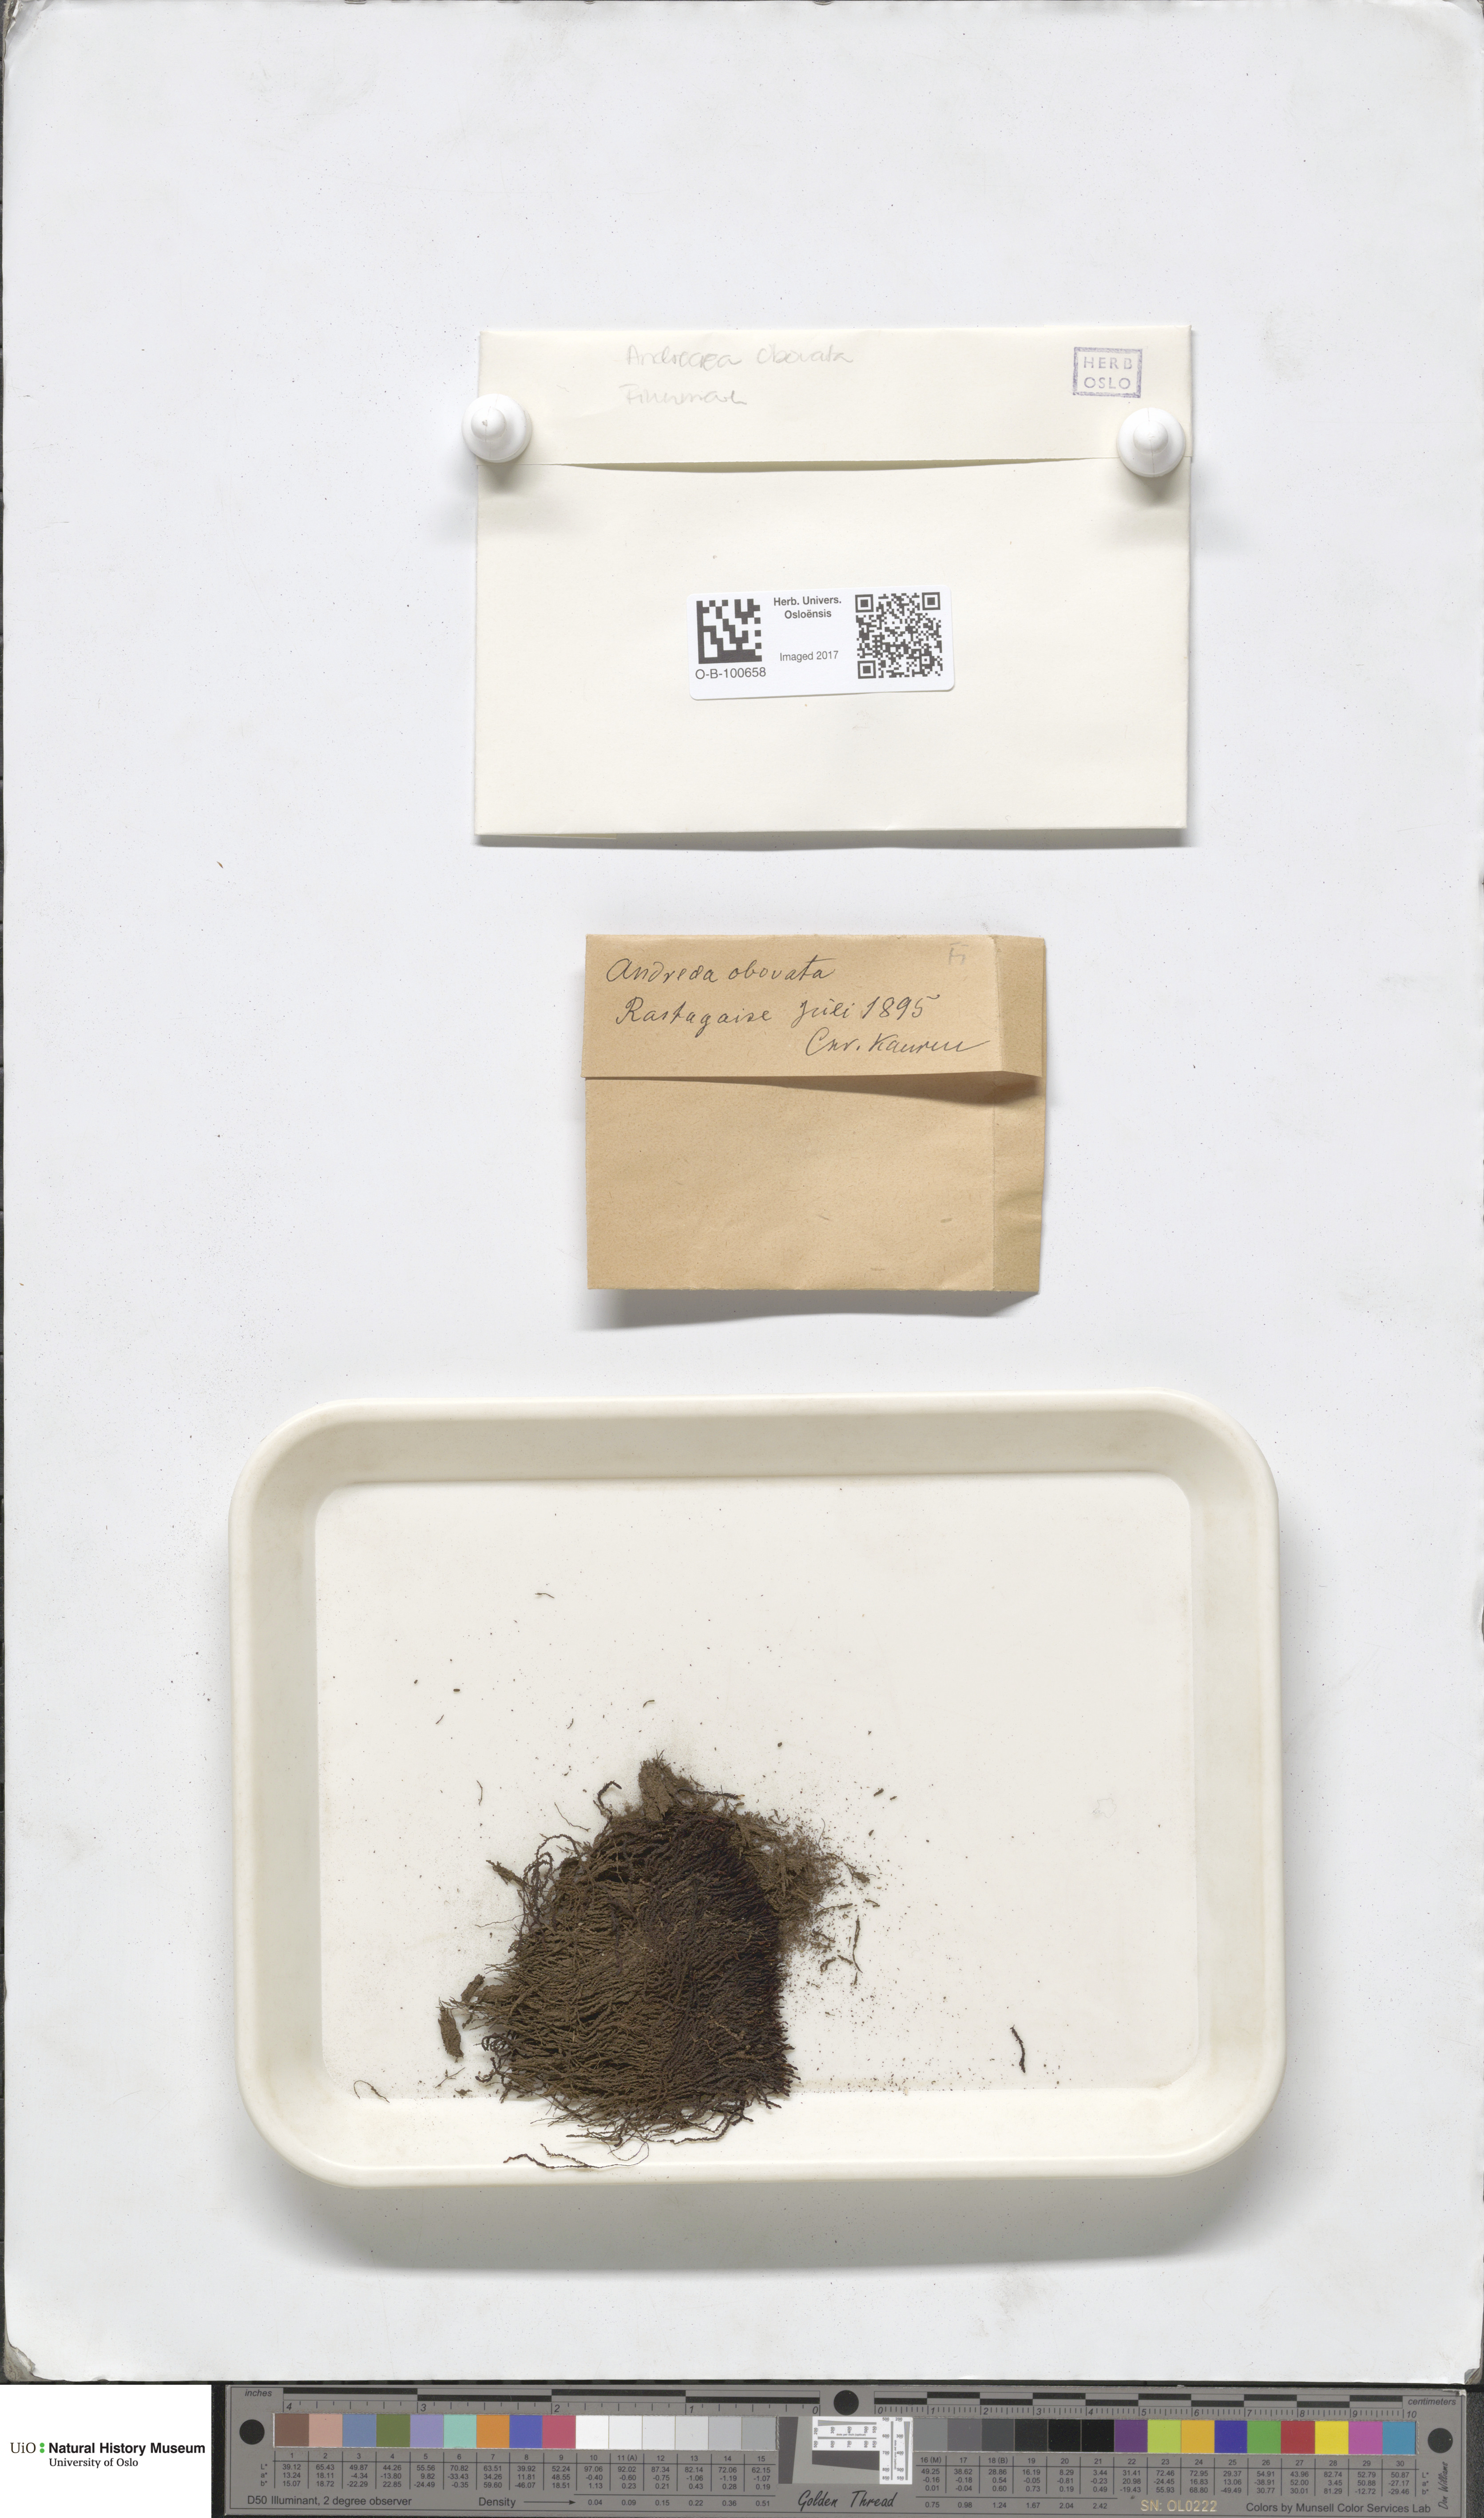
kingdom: Plantae
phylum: Bryophyta
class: Andreaeopsida
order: Andreaeales
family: Andreaeaceae
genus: Andreaea
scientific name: Andreaea alpina
